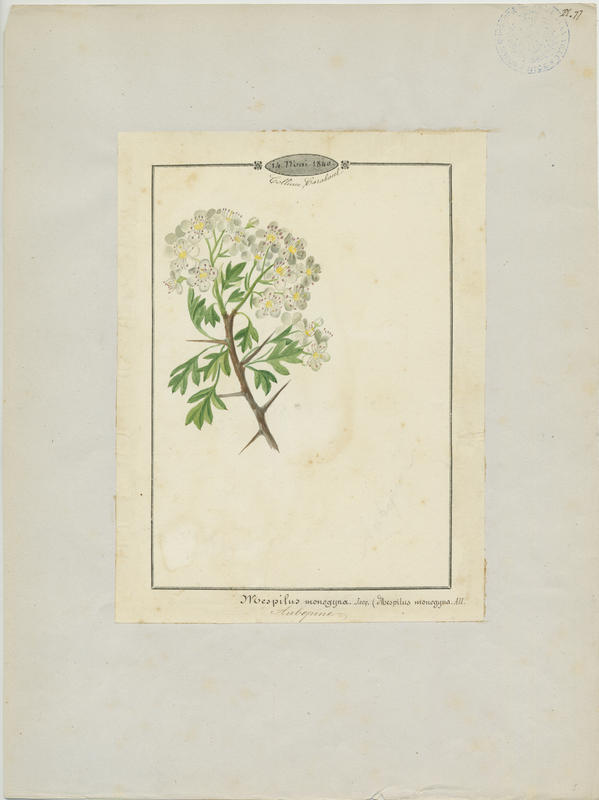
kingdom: Plantae
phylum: Tracheophyta
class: Magnoliopsida
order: Rosales
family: Rosaceae
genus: Crataegus
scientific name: Crataegus monogyna
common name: Hawthorn
